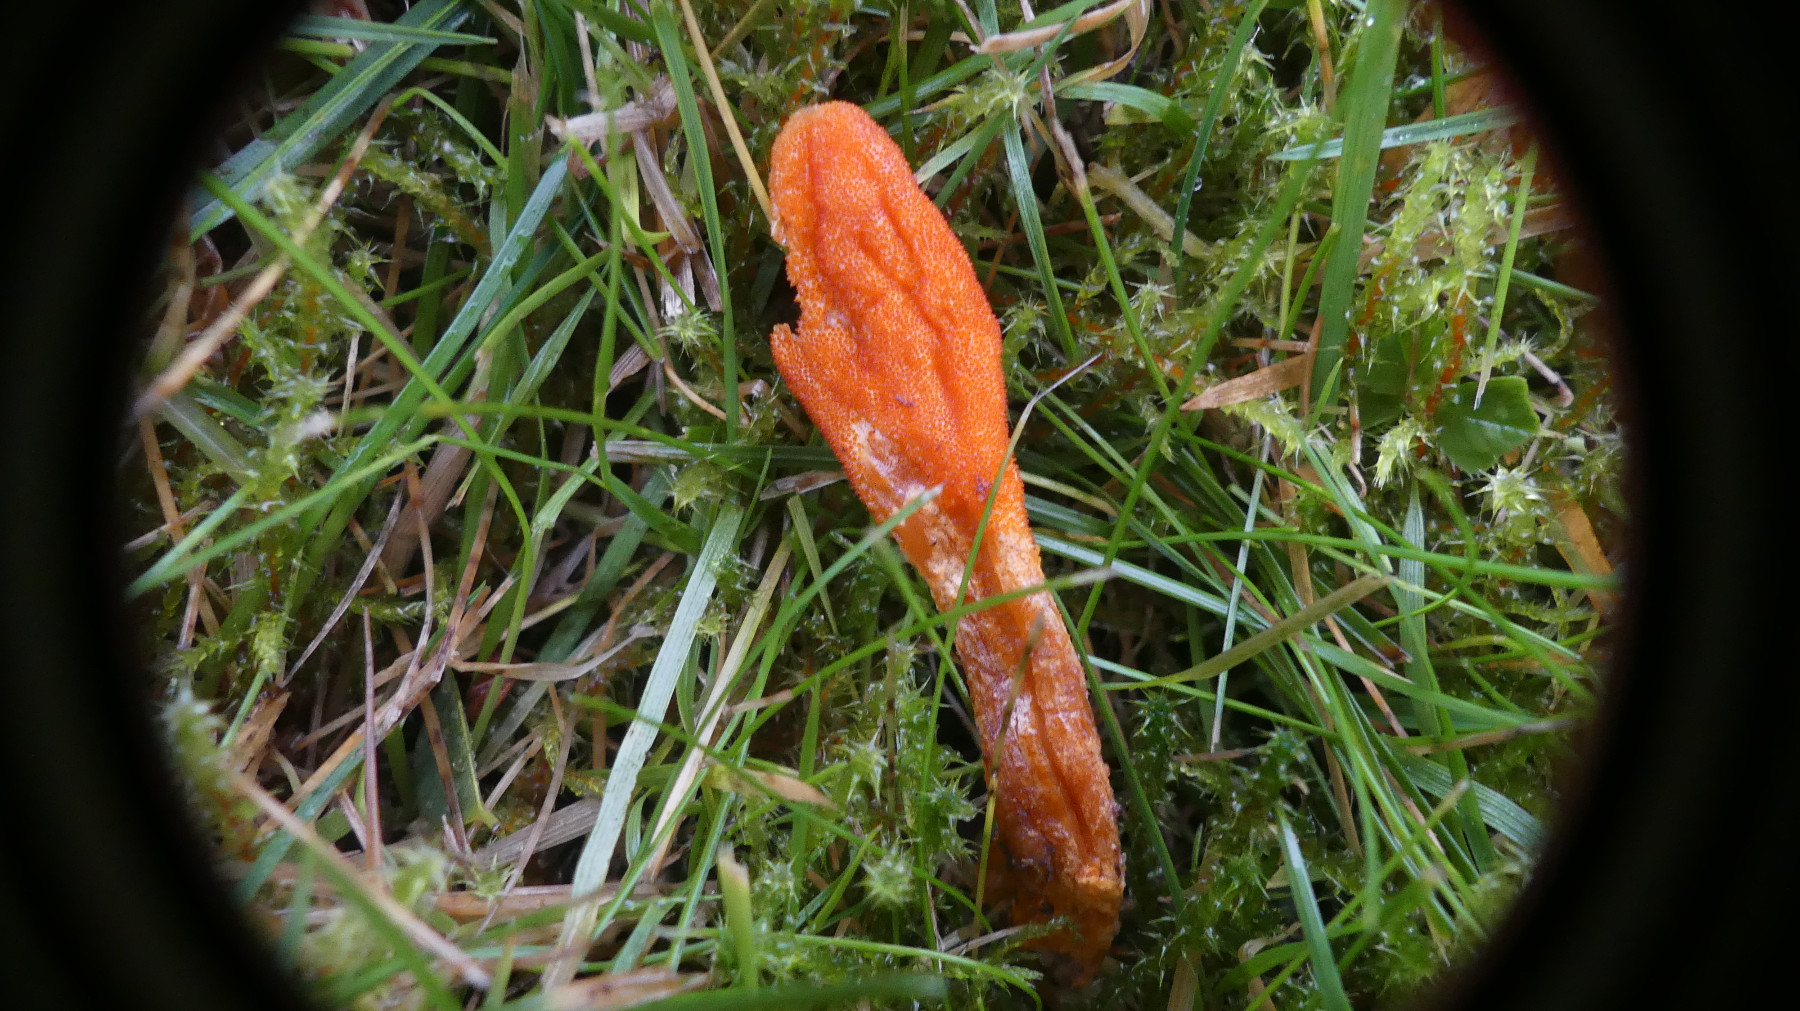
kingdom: Fungi
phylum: Ascomycota
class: Sordariomycetes
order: Hypocreales
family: Cordycipitaceae
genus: Cordyceps
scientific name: Cordyceps militaris
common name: puppe-snyltekølle
